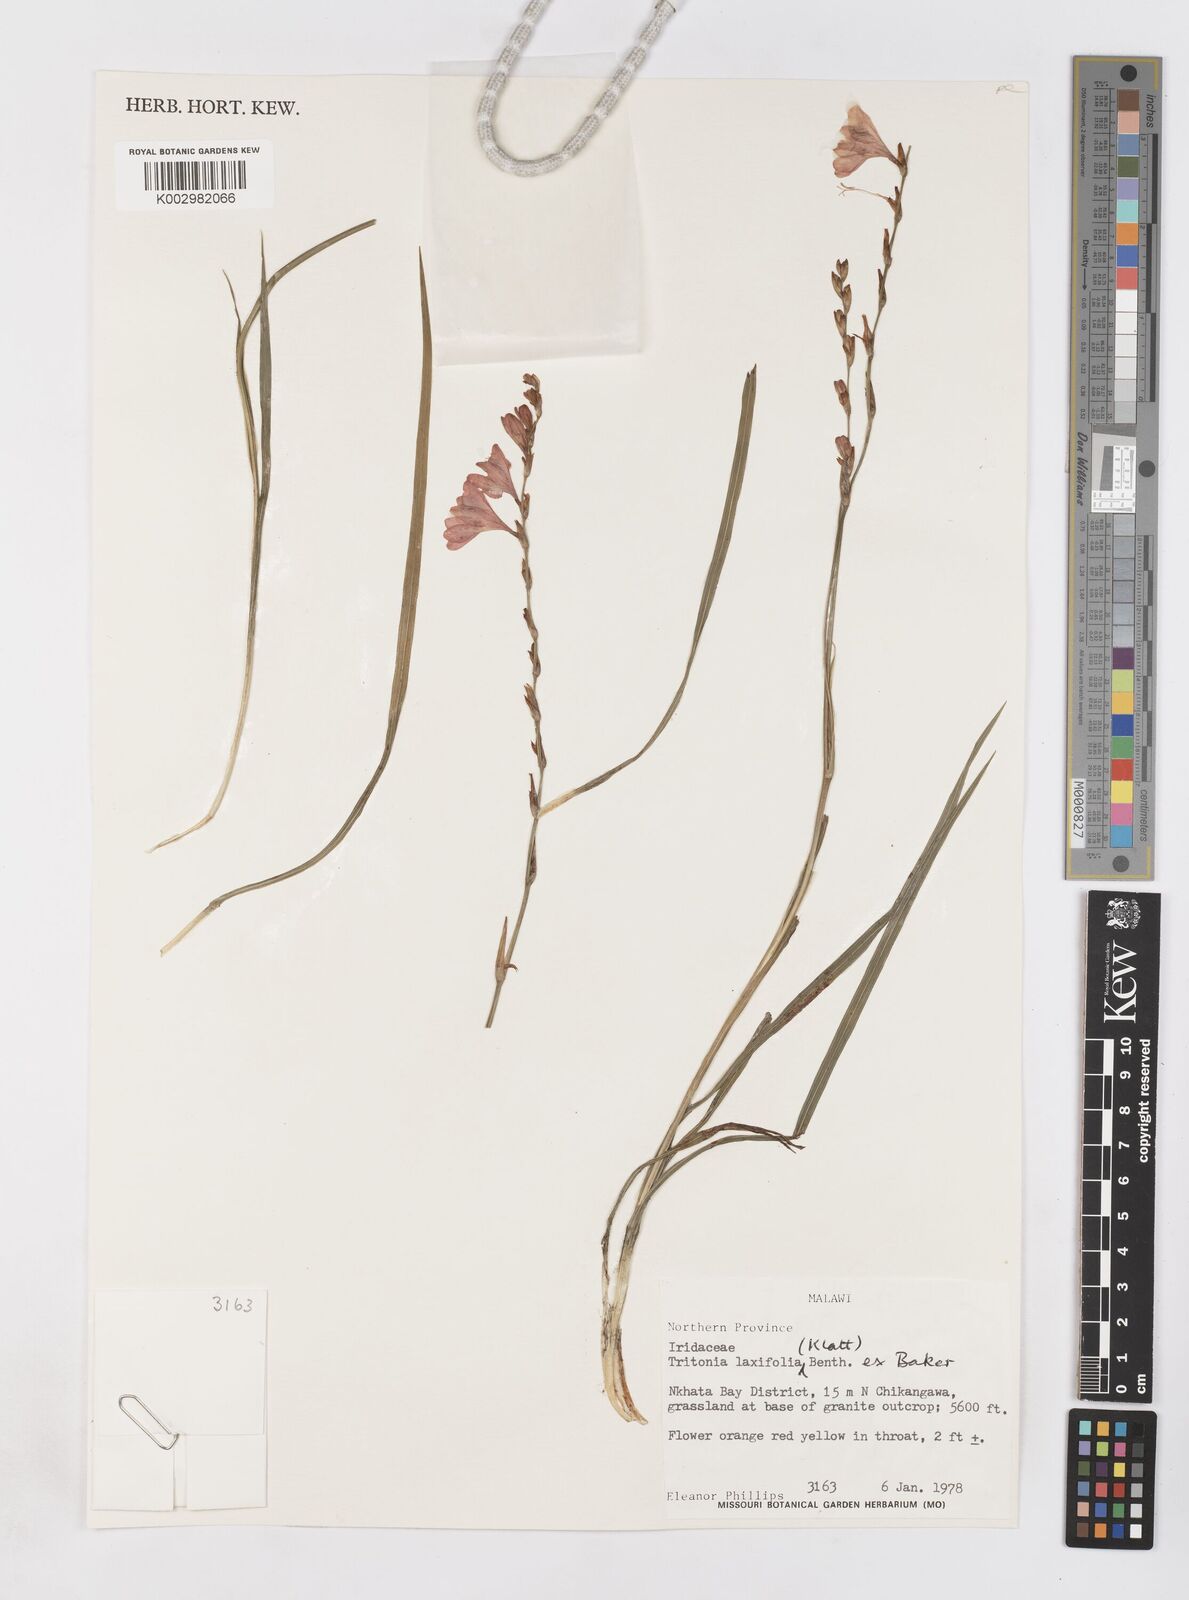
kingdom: Plantae
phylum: Tracheophyta
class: Liliopsida
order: Asparagales
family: Iridaceae
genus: Tritonia
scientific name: Tritonia laxifolia
